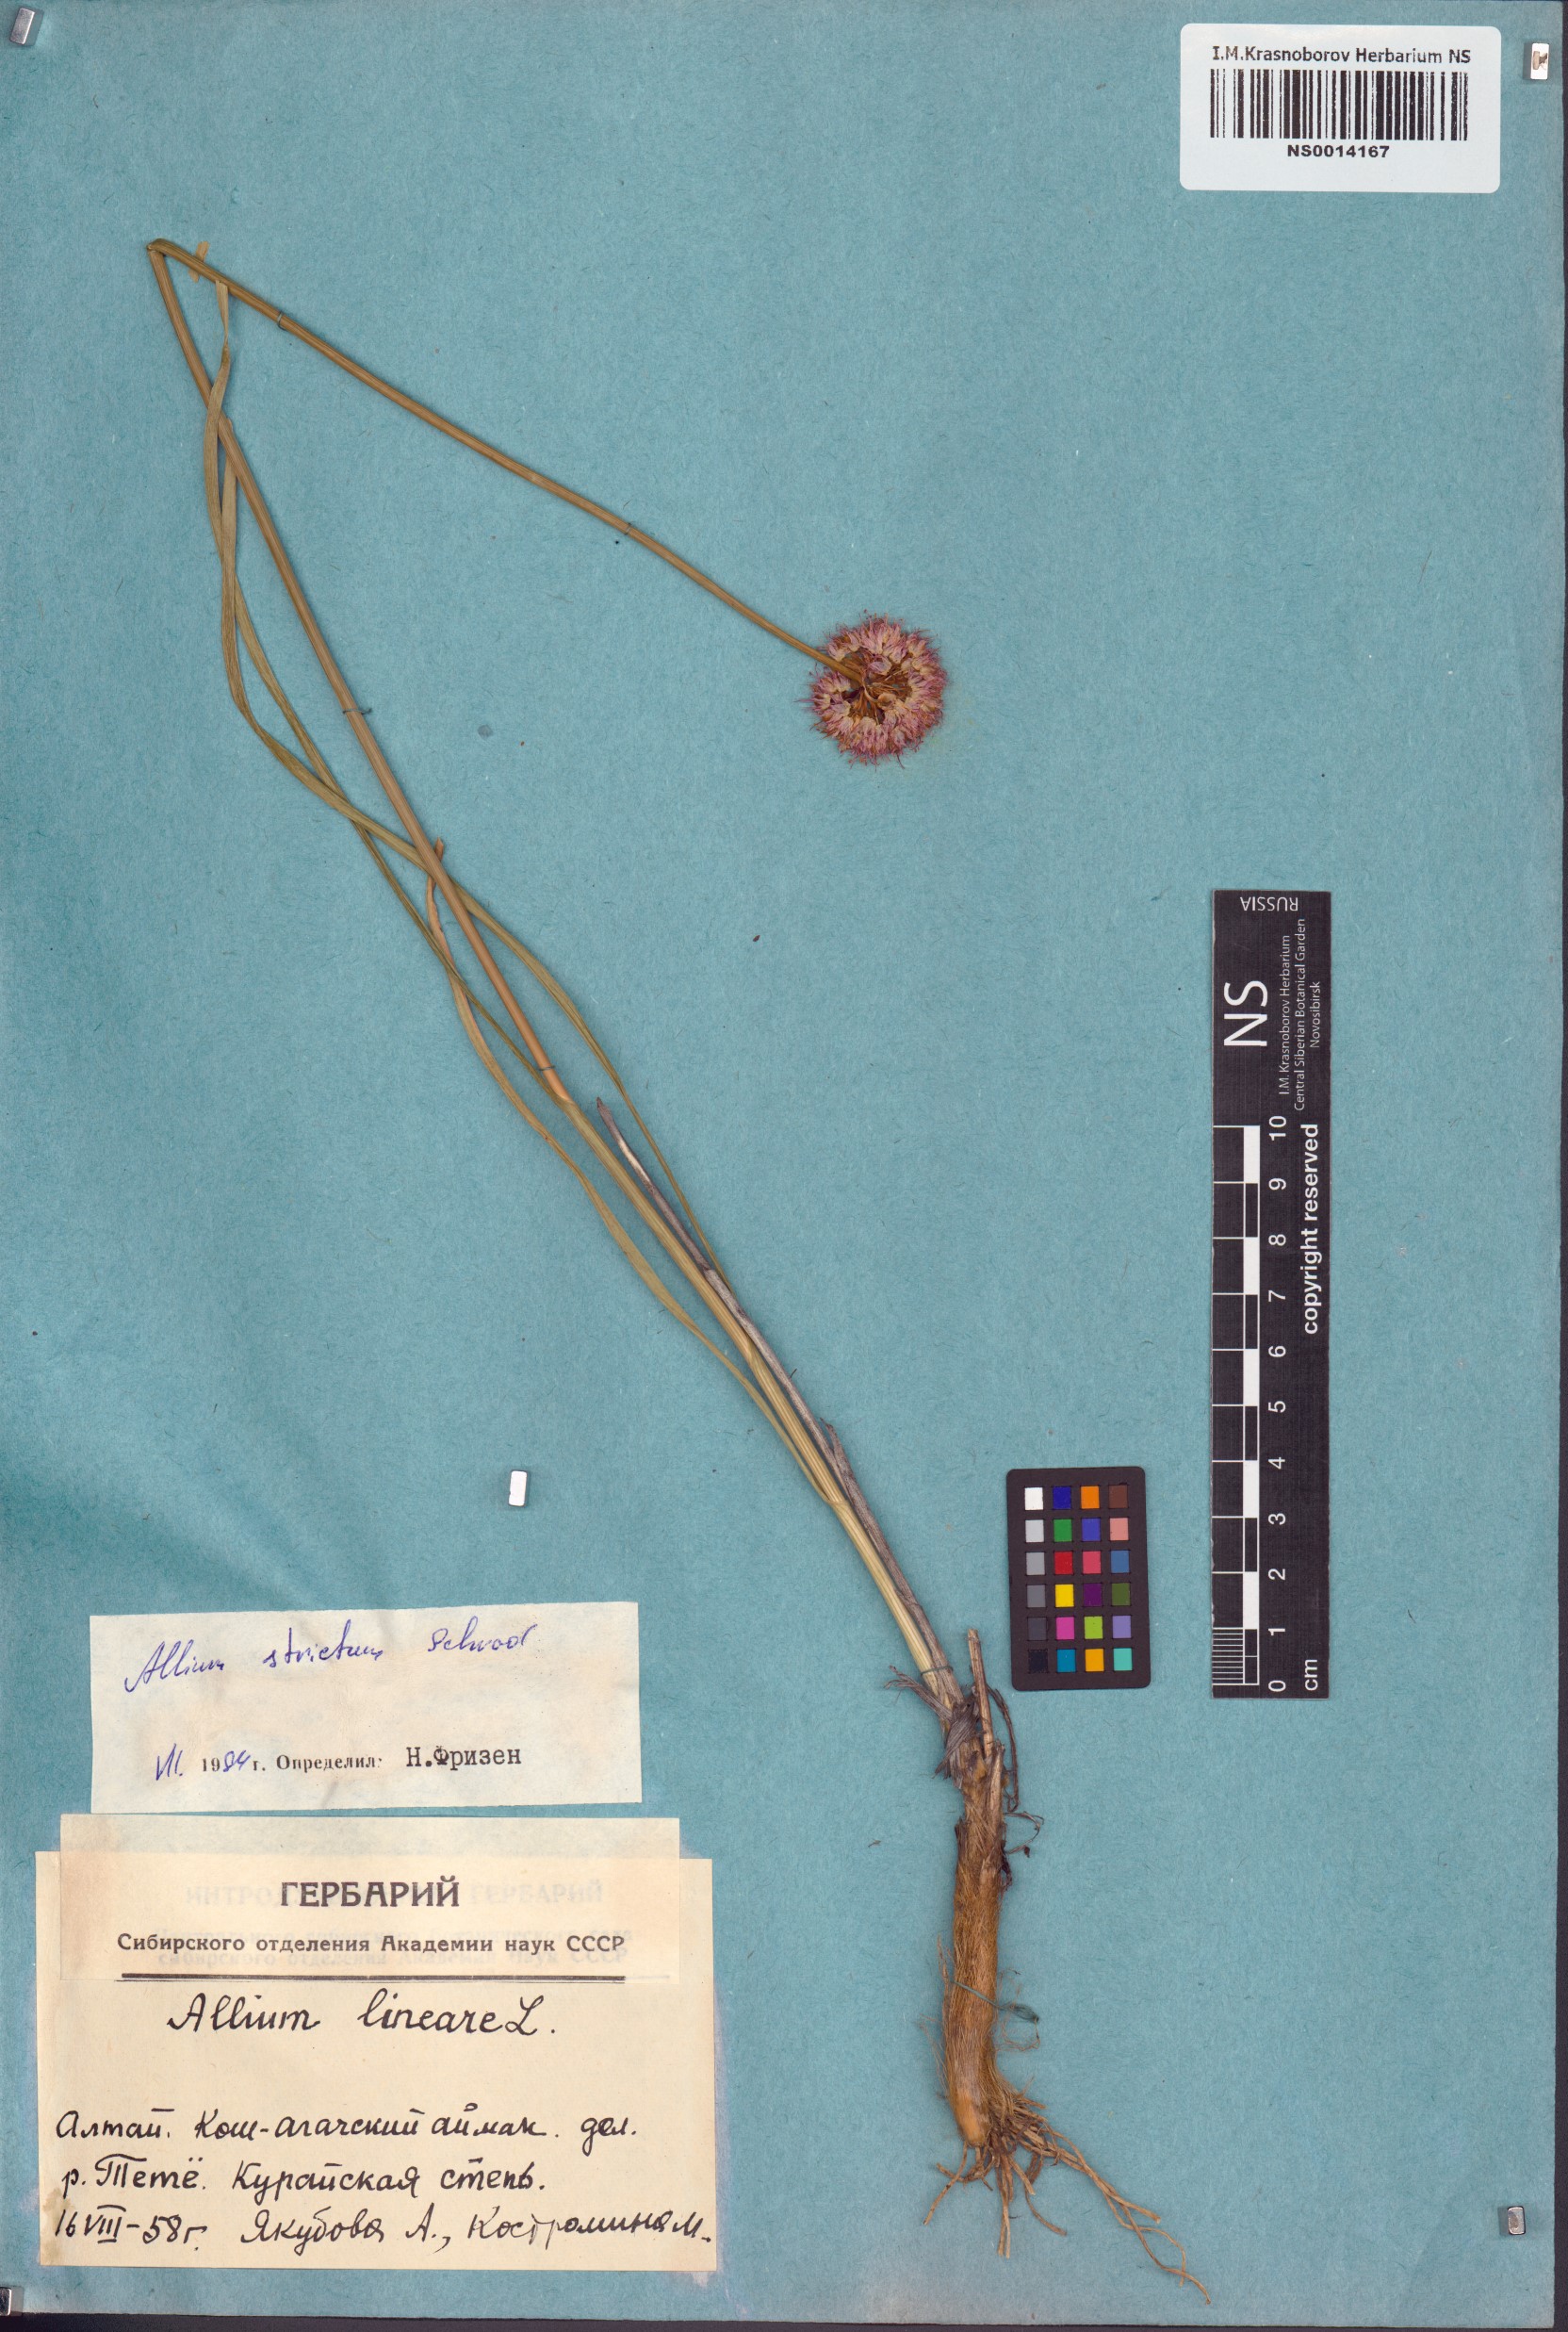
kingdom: Plantae
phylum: Tracheophyta
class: Liliopsida
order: Asparagales
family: Amaryllidaceae
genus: Allium
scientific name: Allium strictum
